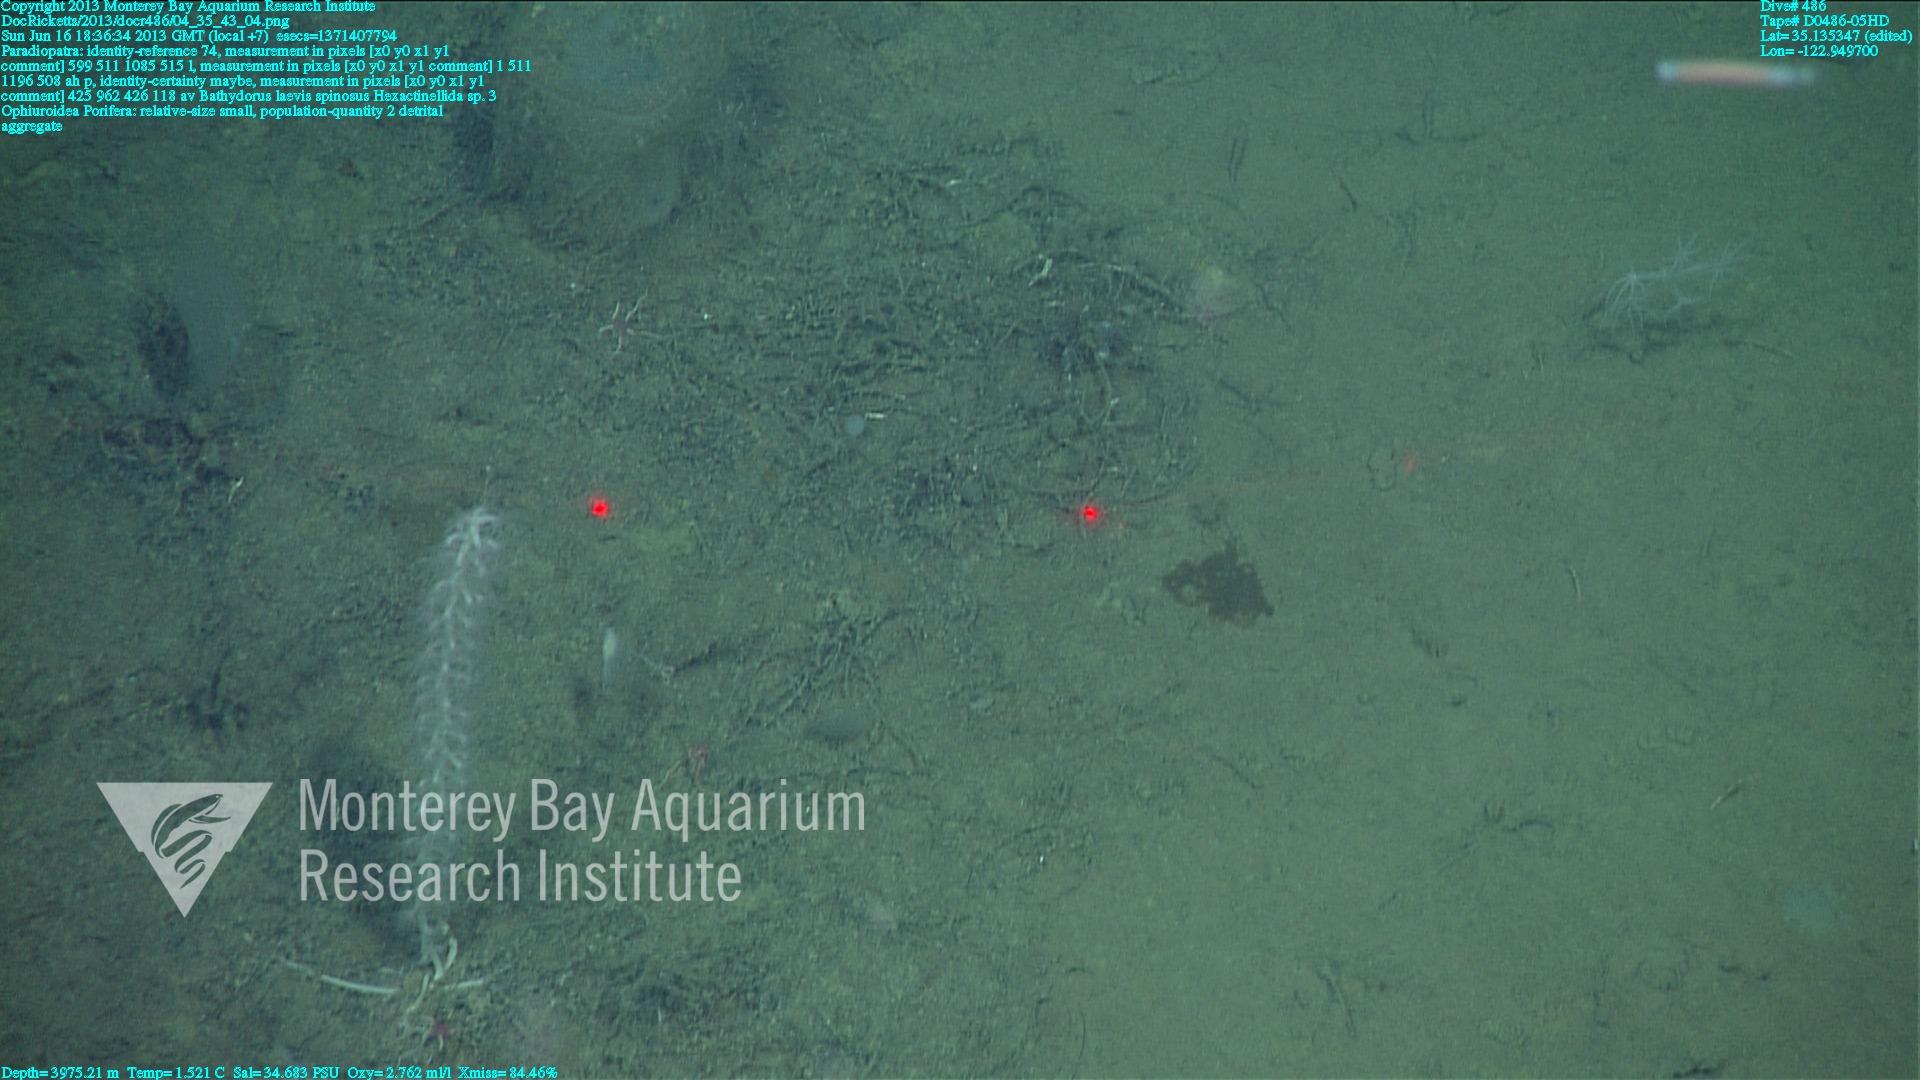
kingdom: Animalia
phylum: Porifera
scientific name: Porifera
